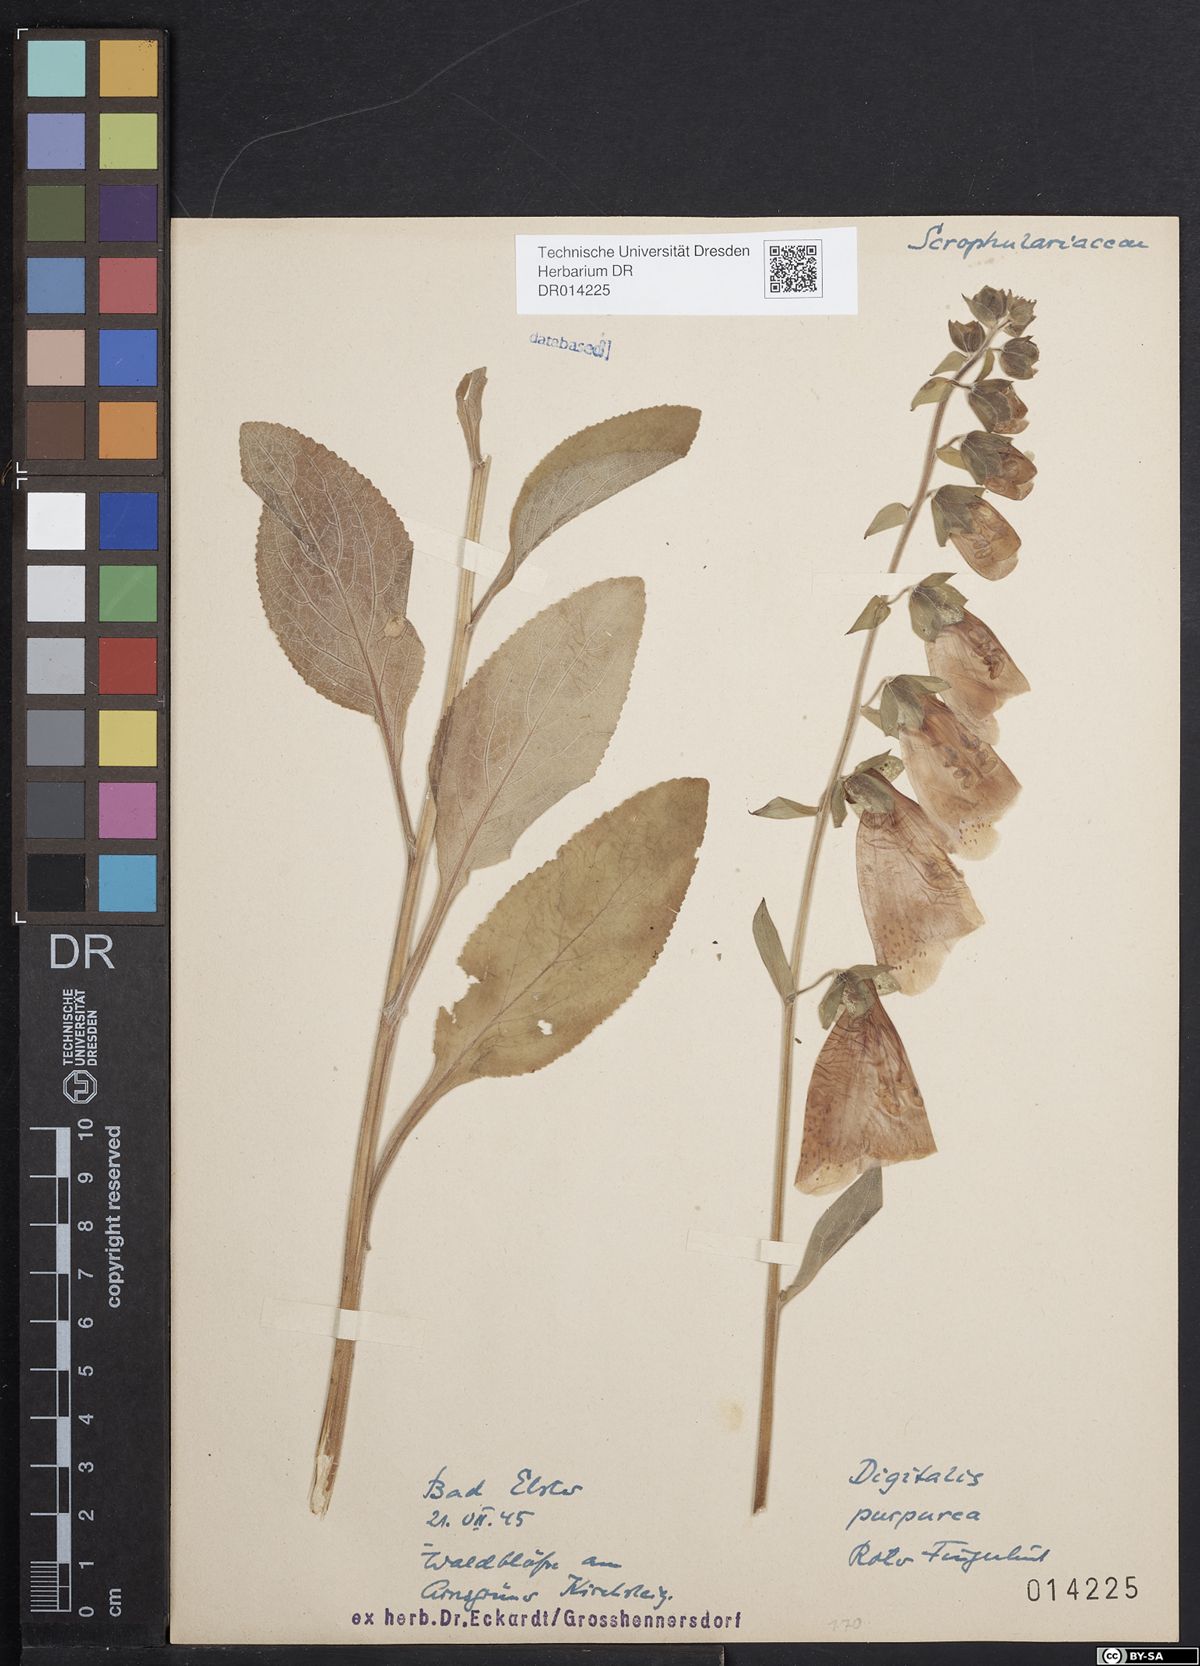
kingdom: Plantae
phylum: Tracheophyta
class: Magnoliopsida
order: Lamiales
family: Plantaginaceae
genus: Digitalis
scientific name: Digitalis purpurea
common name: Foxglove
